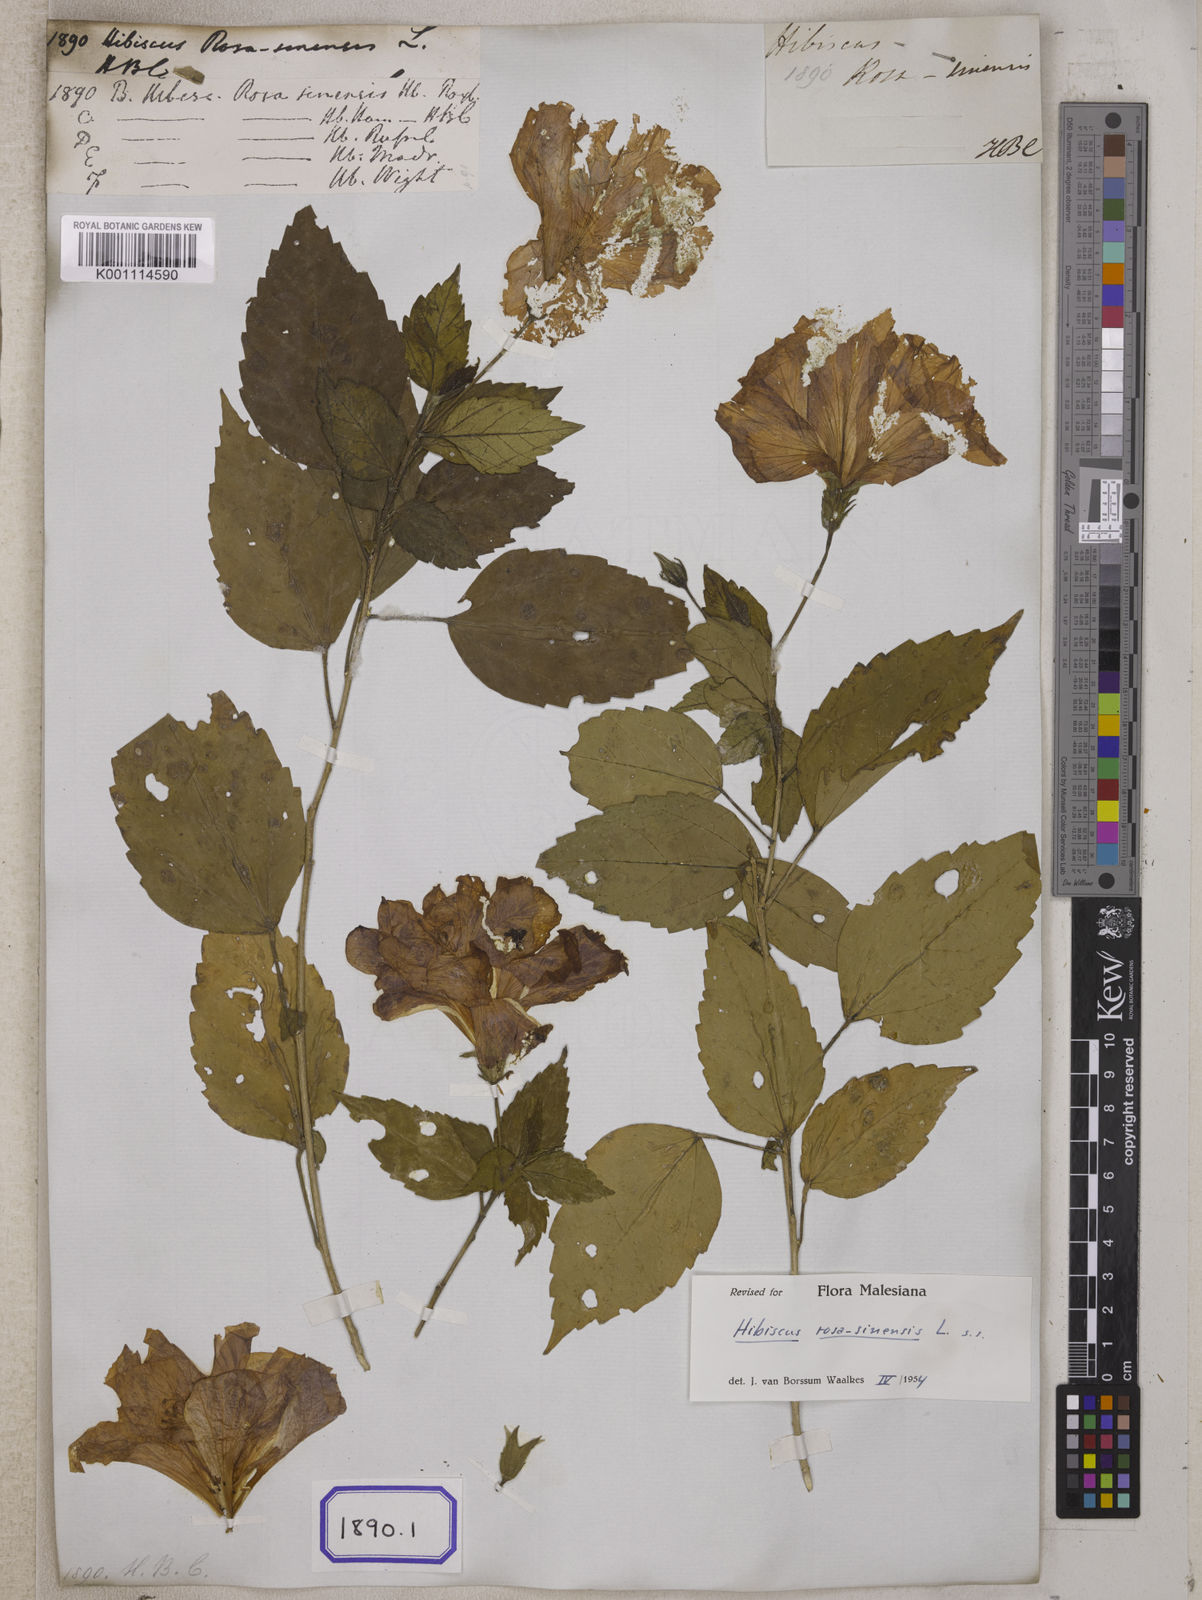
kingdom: Plantae
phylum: Tracheophyta
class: Magnoliopsida
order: Malvales
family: Malvaceae
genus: Hibiscus
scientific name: Hibiscus rosa-sinensis
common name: Hibiscus
